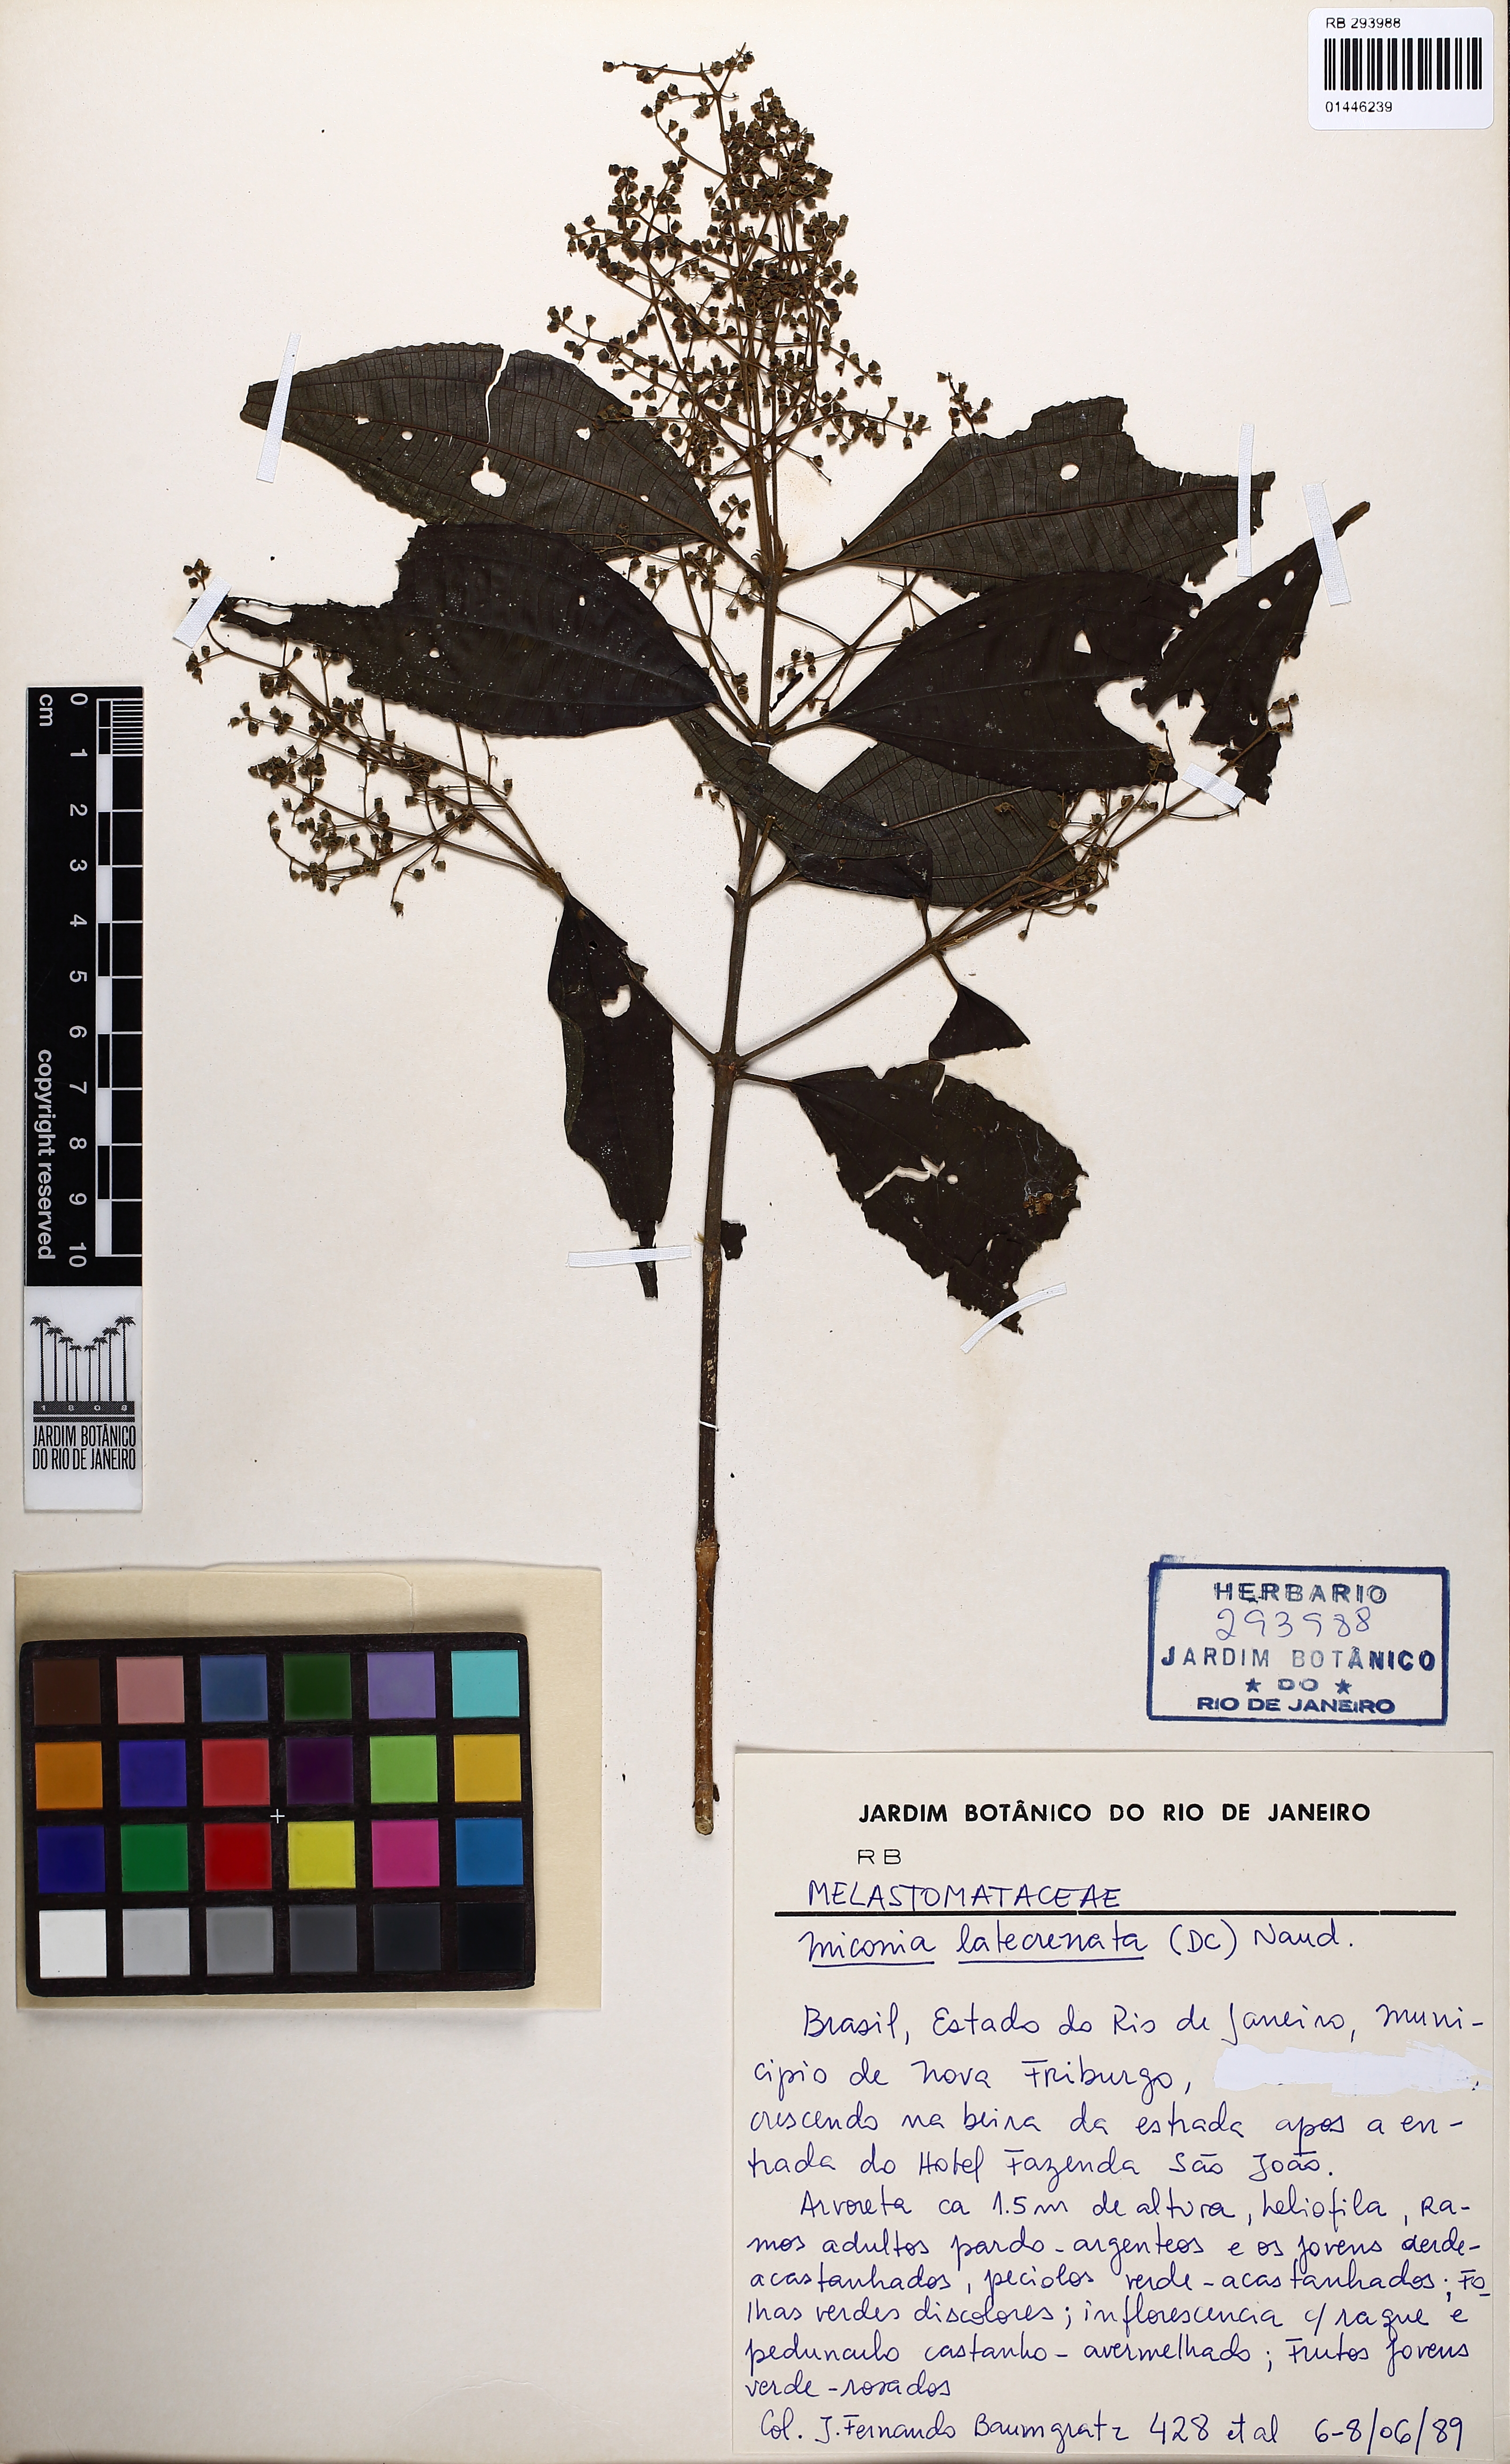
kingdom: Plantae
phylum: Tracheophyta
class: Magnoliopsida
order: Myrtales
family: Melastomataceae
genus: Miconia
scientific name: Miconia latecrenata
